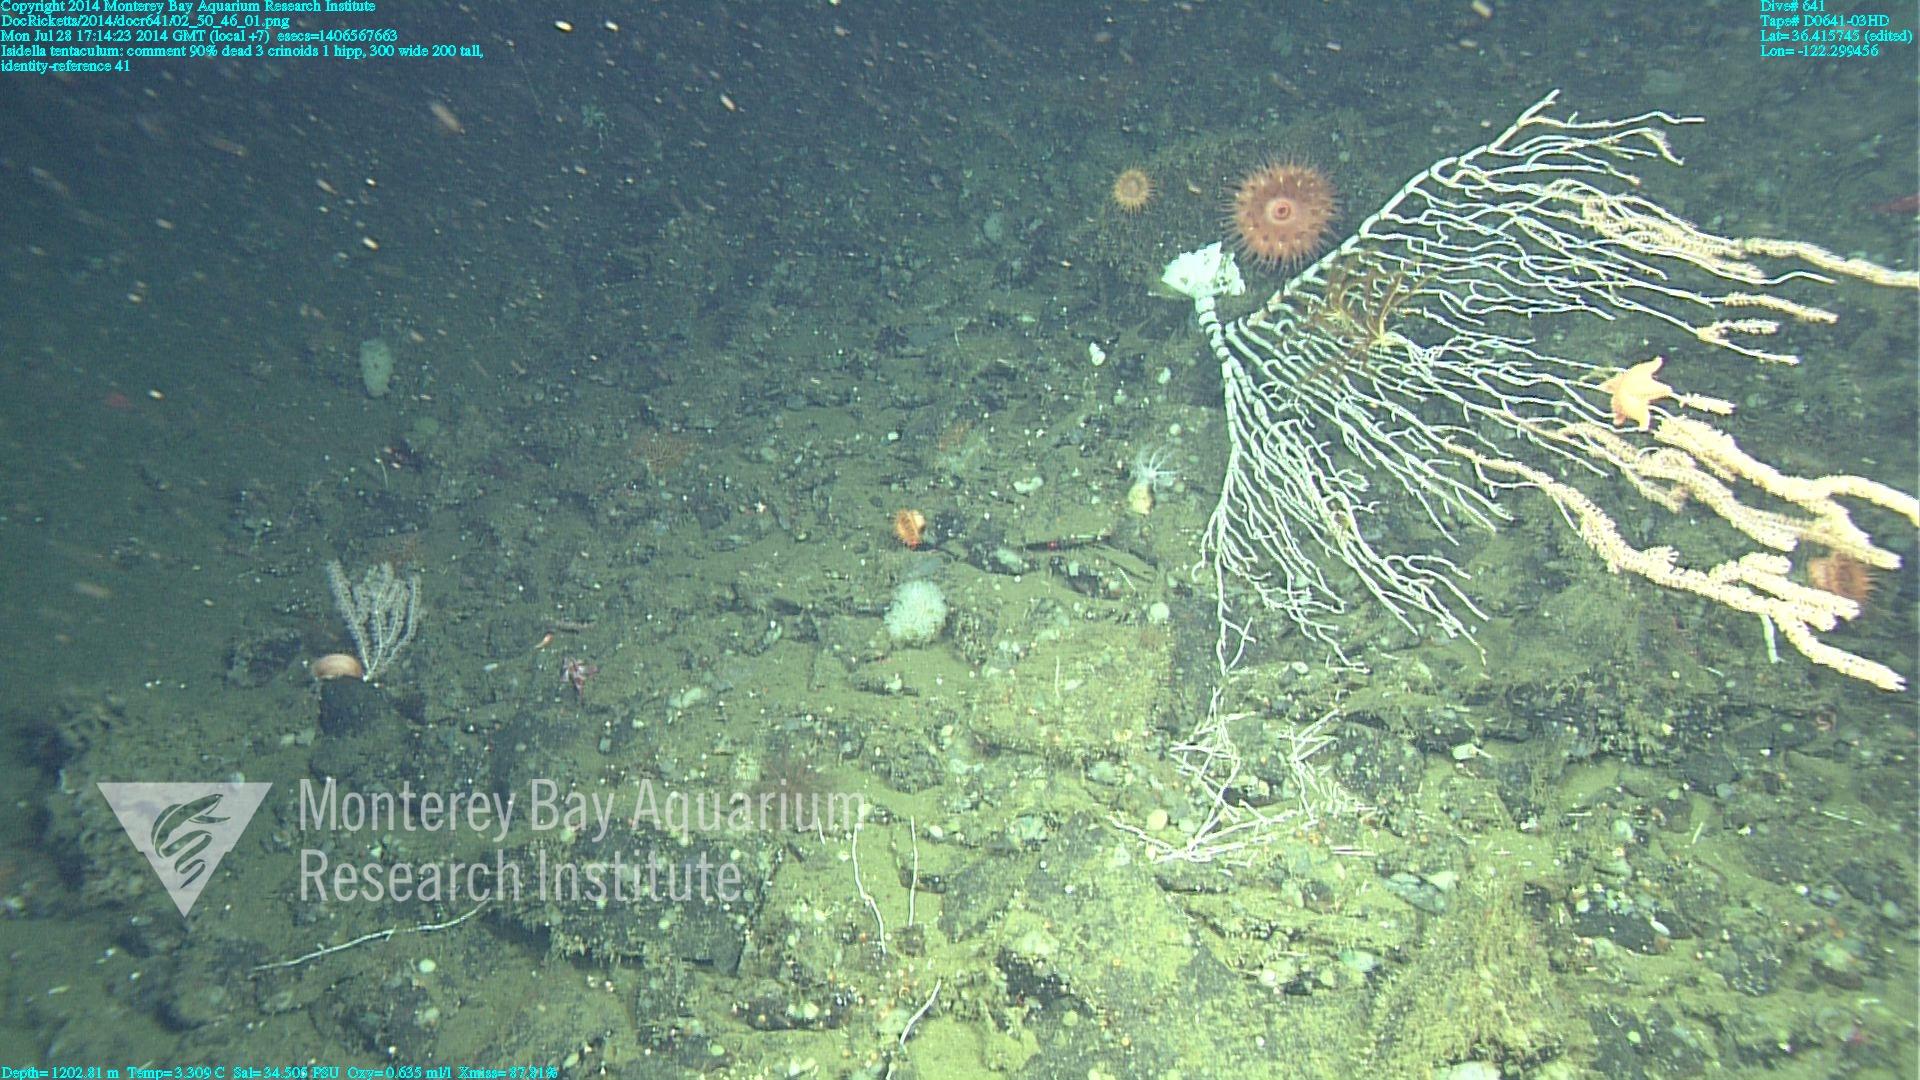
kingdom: Animalia
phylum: Cnidaria
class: Anthozoa
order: Scleralcyonacea
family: Keratoisididae
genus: Isidella
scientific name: Isidella tentaculum
